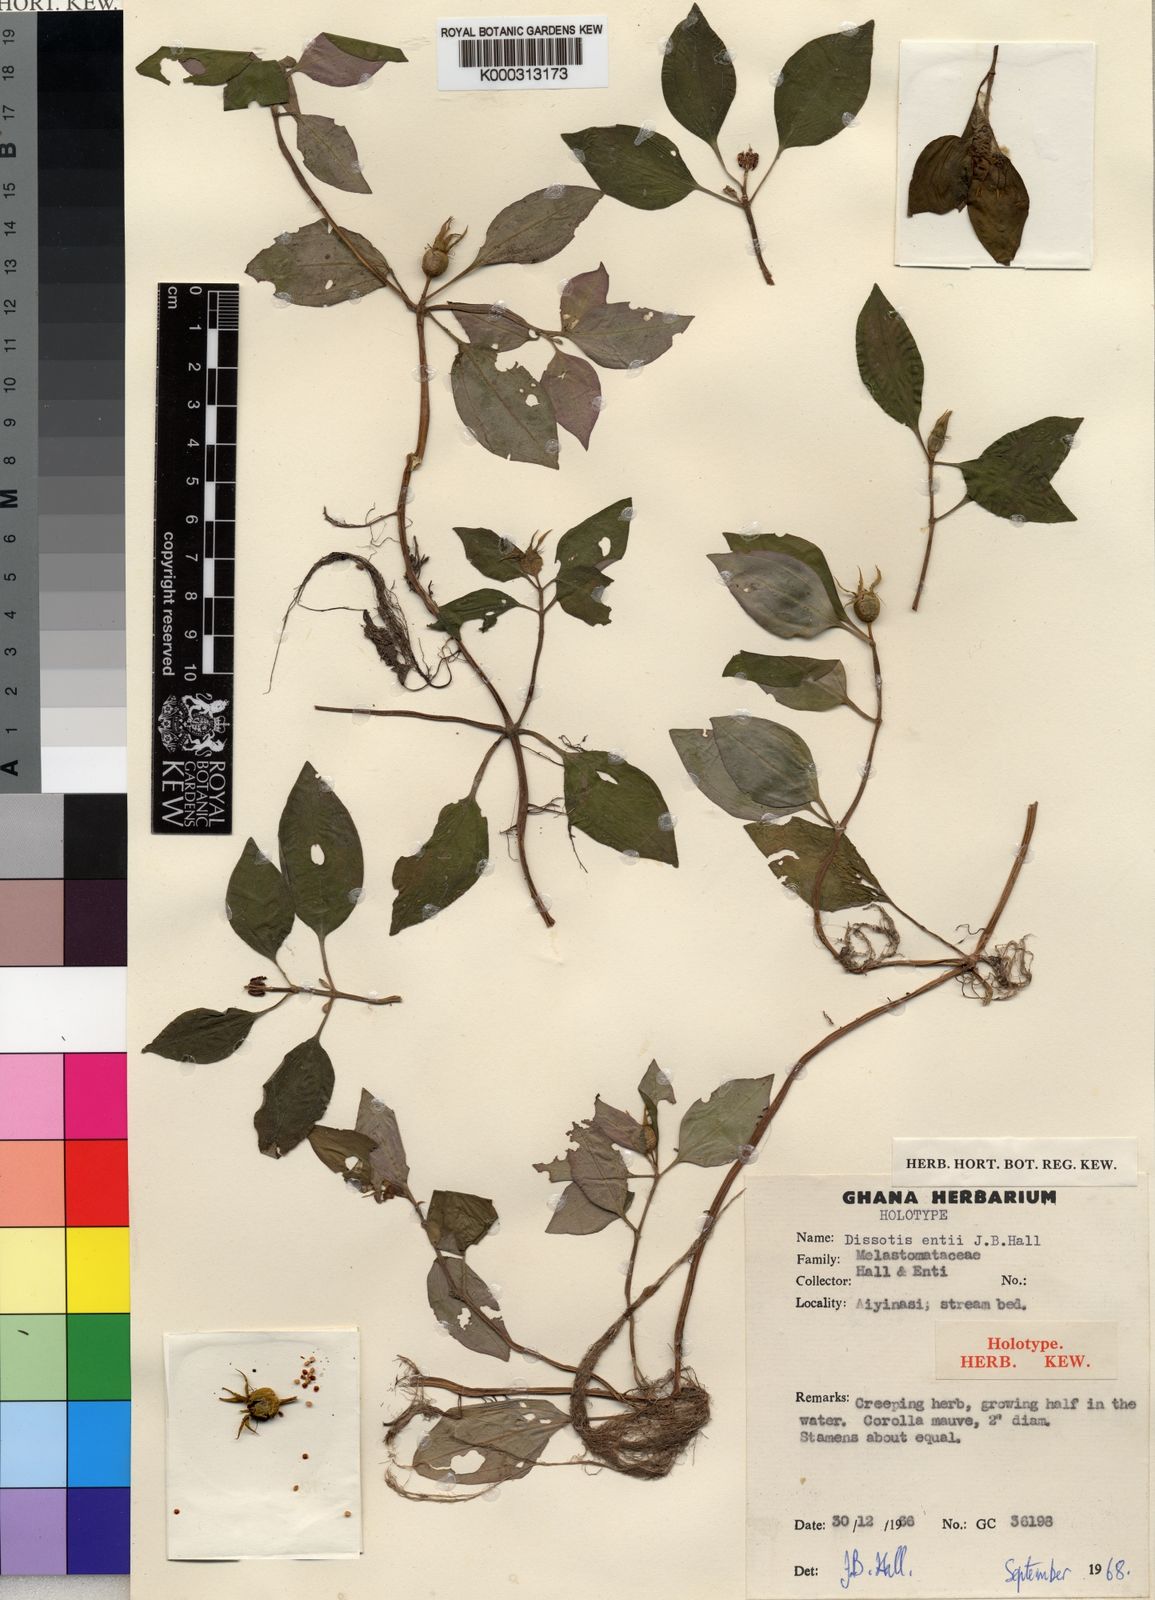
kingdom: Plantae
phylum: Tracheophyta
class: Magnoliopsida
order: Myrtales
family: Melastomataceae
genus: Heterotis
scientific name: Heterotis
